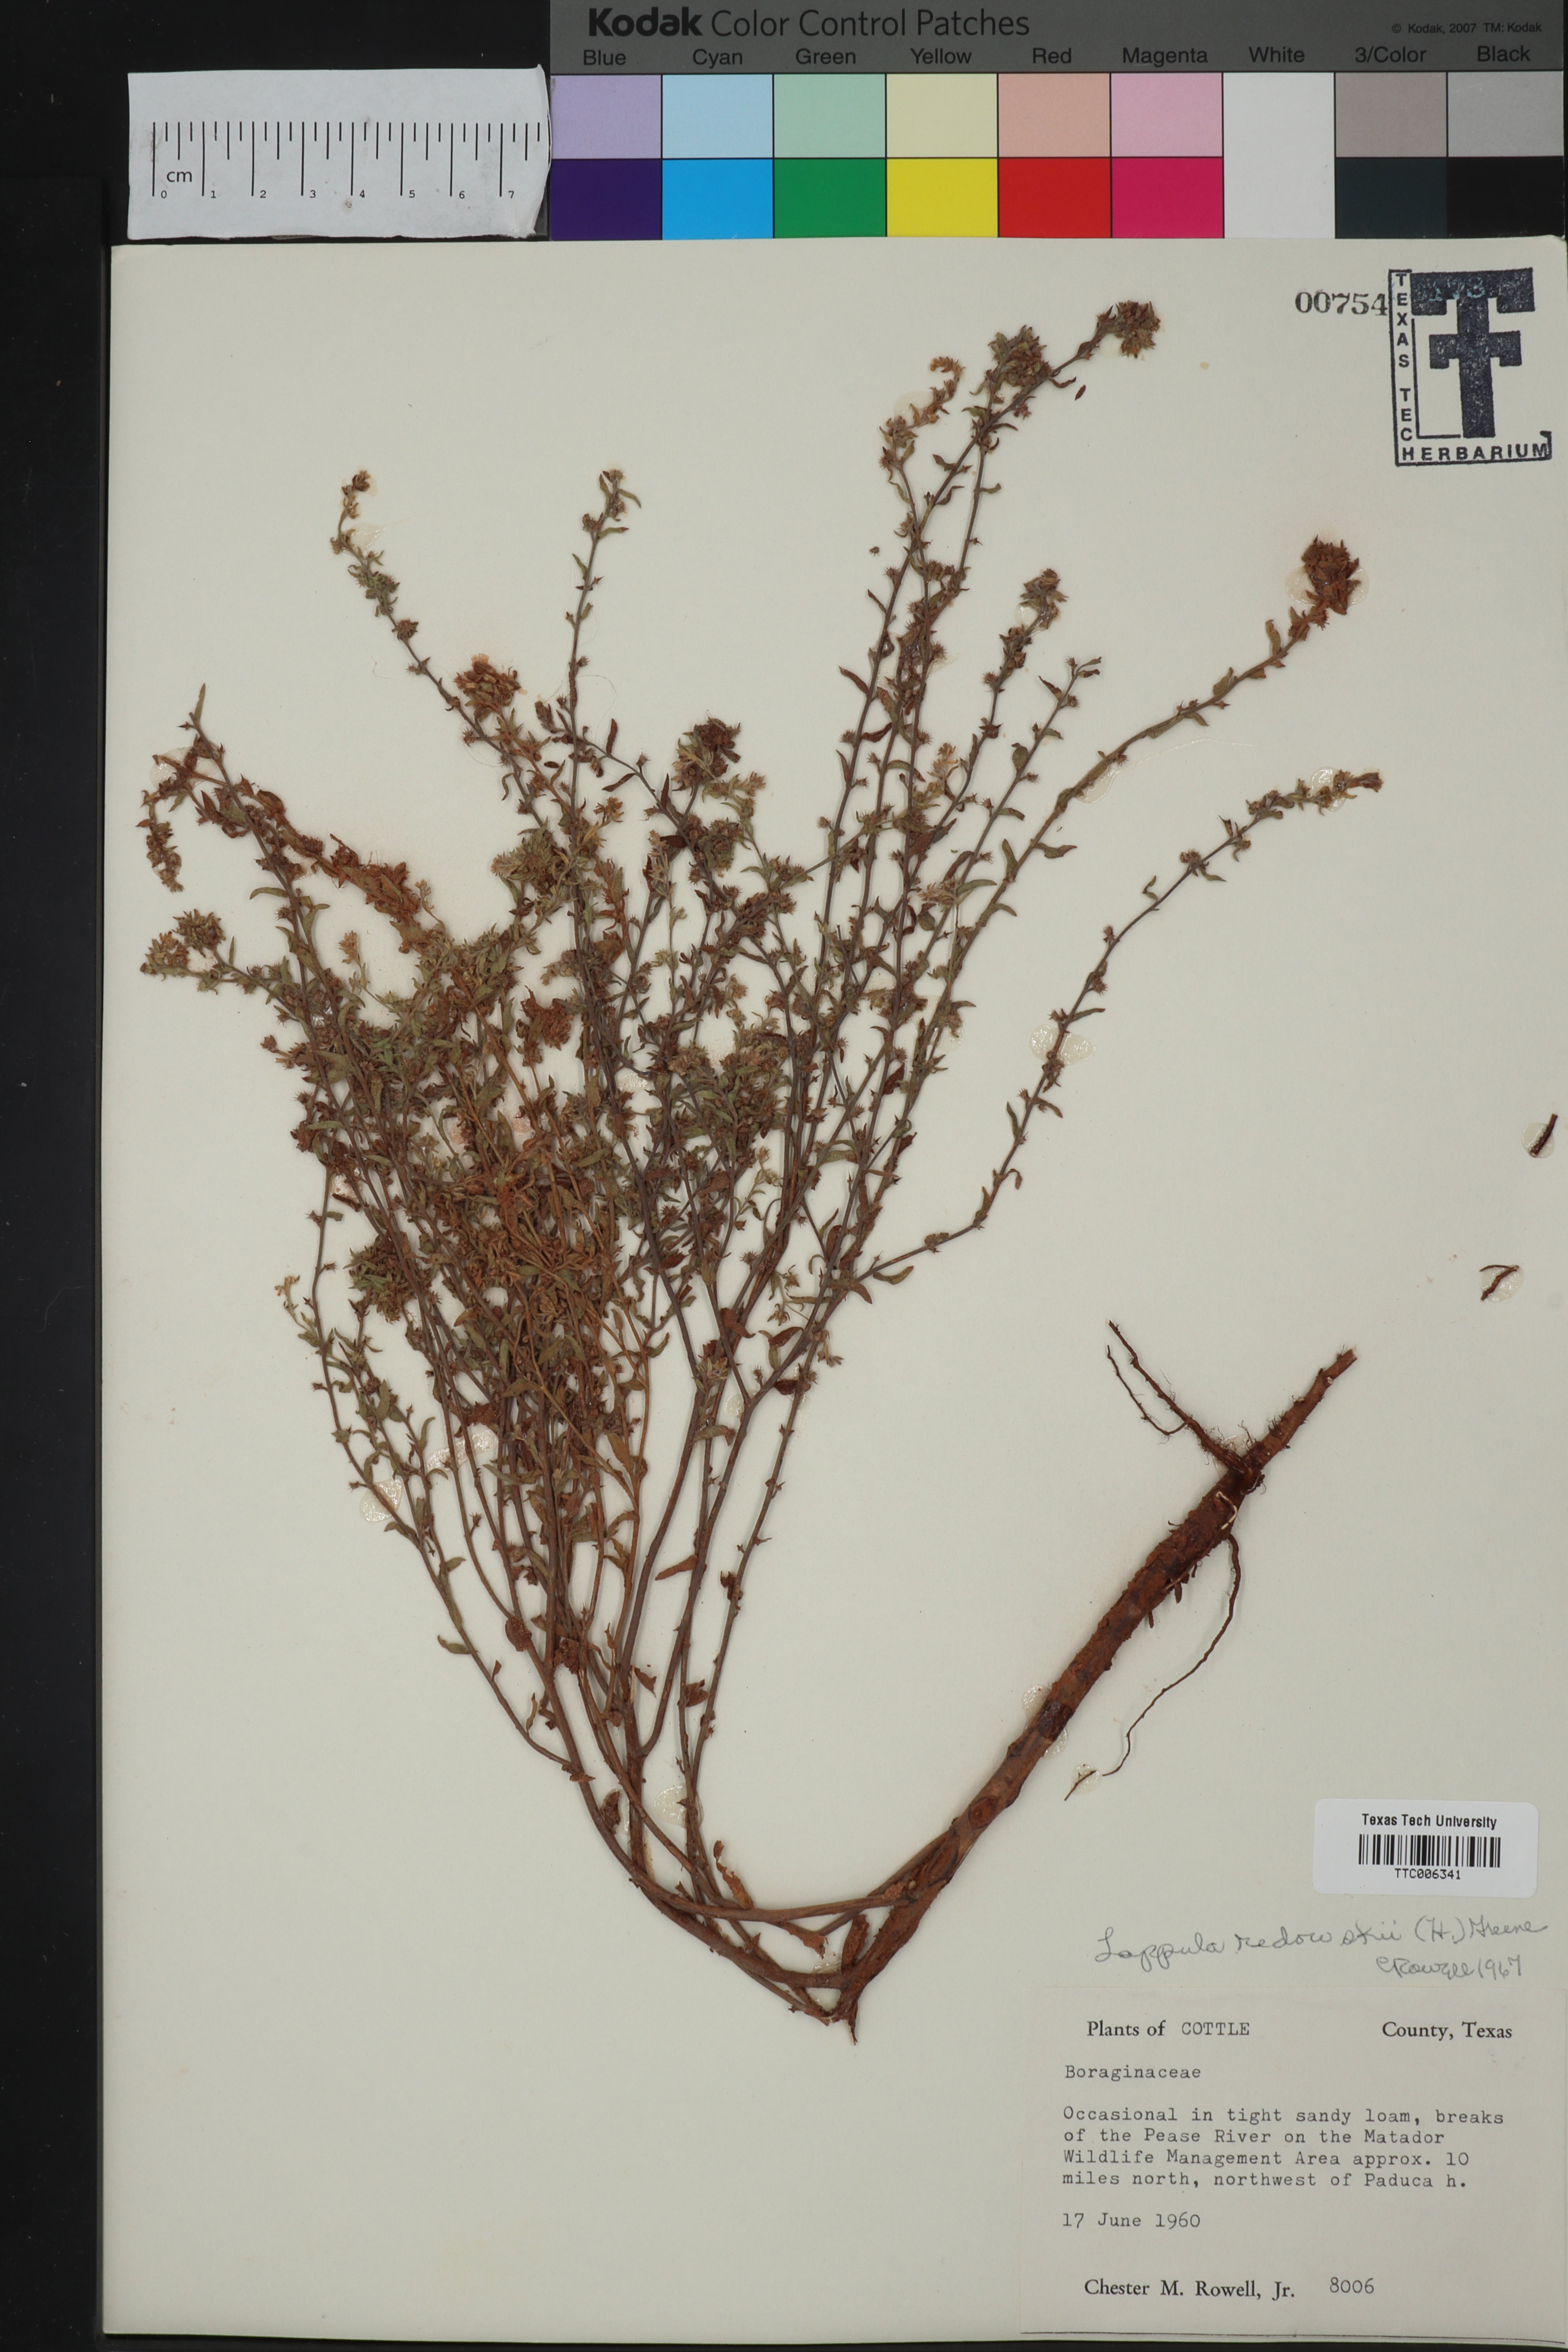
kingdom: Plantae
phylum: Tracheophyta
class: Magnoliopsida
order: Boraginales
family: Boraginaceae
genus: Lappula
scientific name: Lappula redowskii
